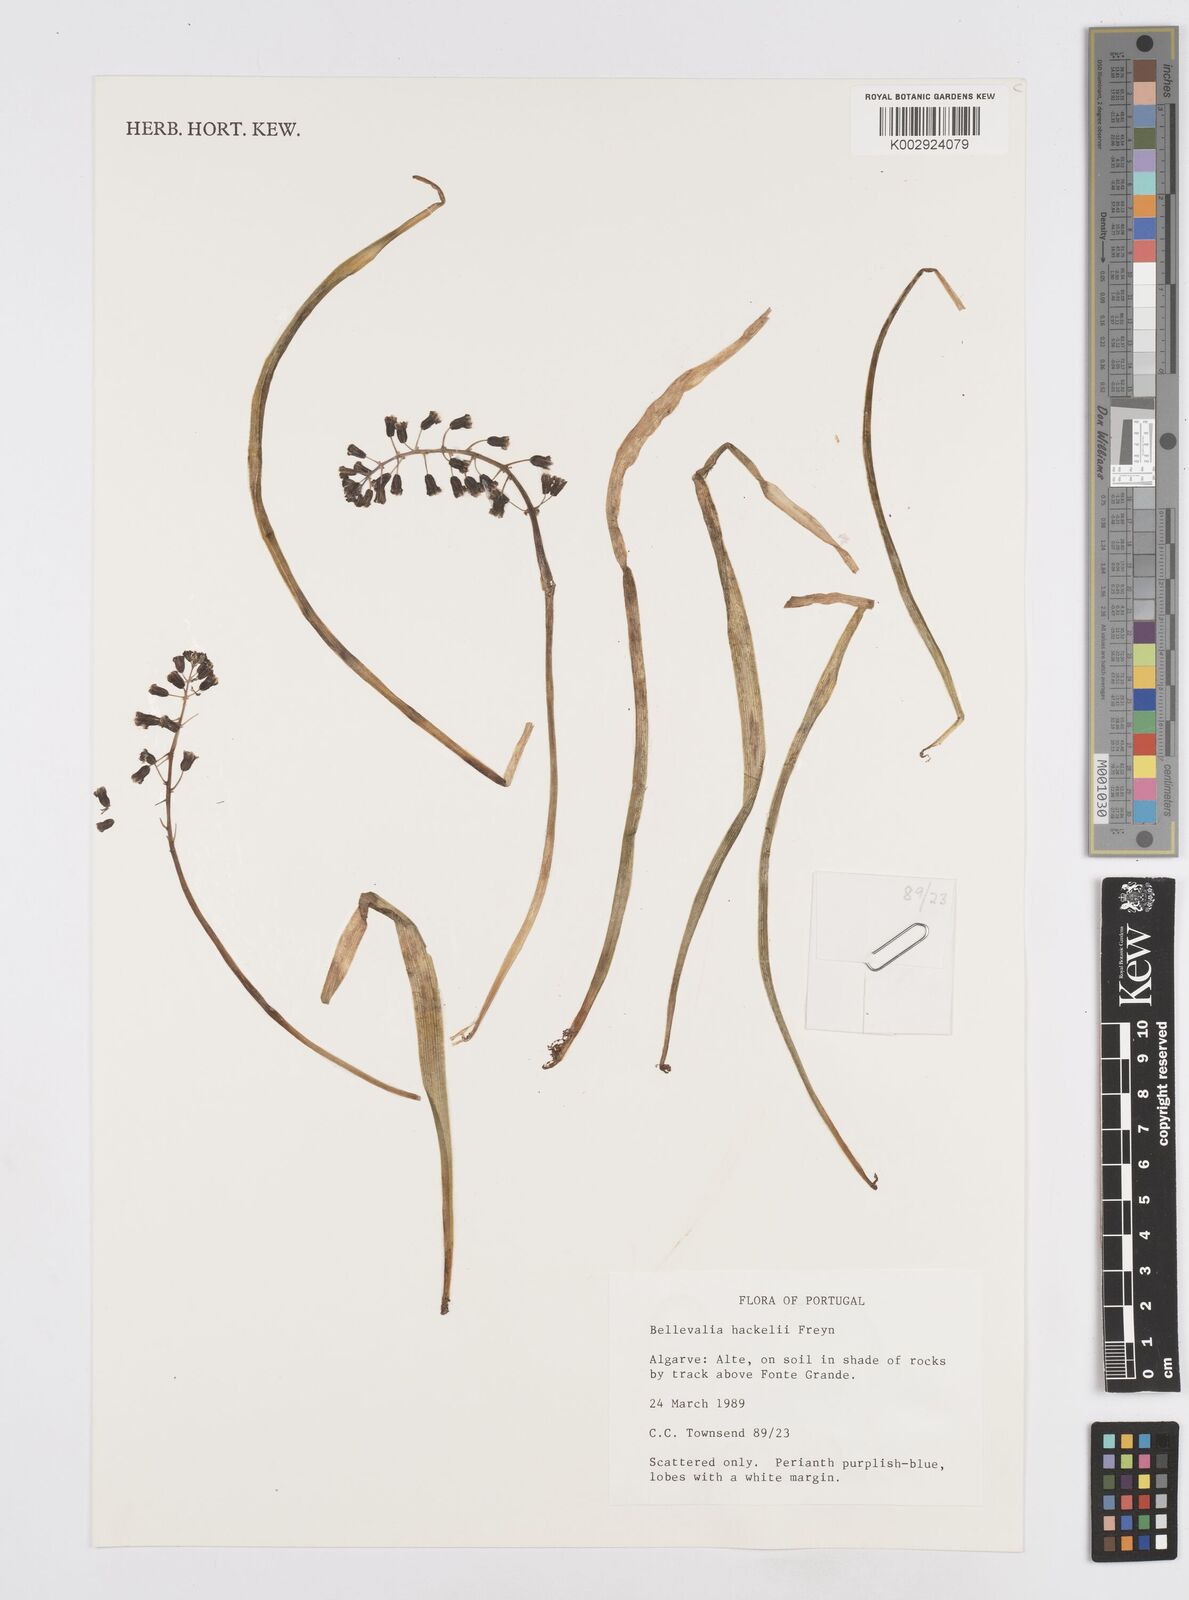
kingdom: Plantae
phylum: Tracheophyta
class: Liliopsida
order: Asparagales
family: Asparagaceae
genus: Bellevalia
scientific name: Bellevalia dubia
